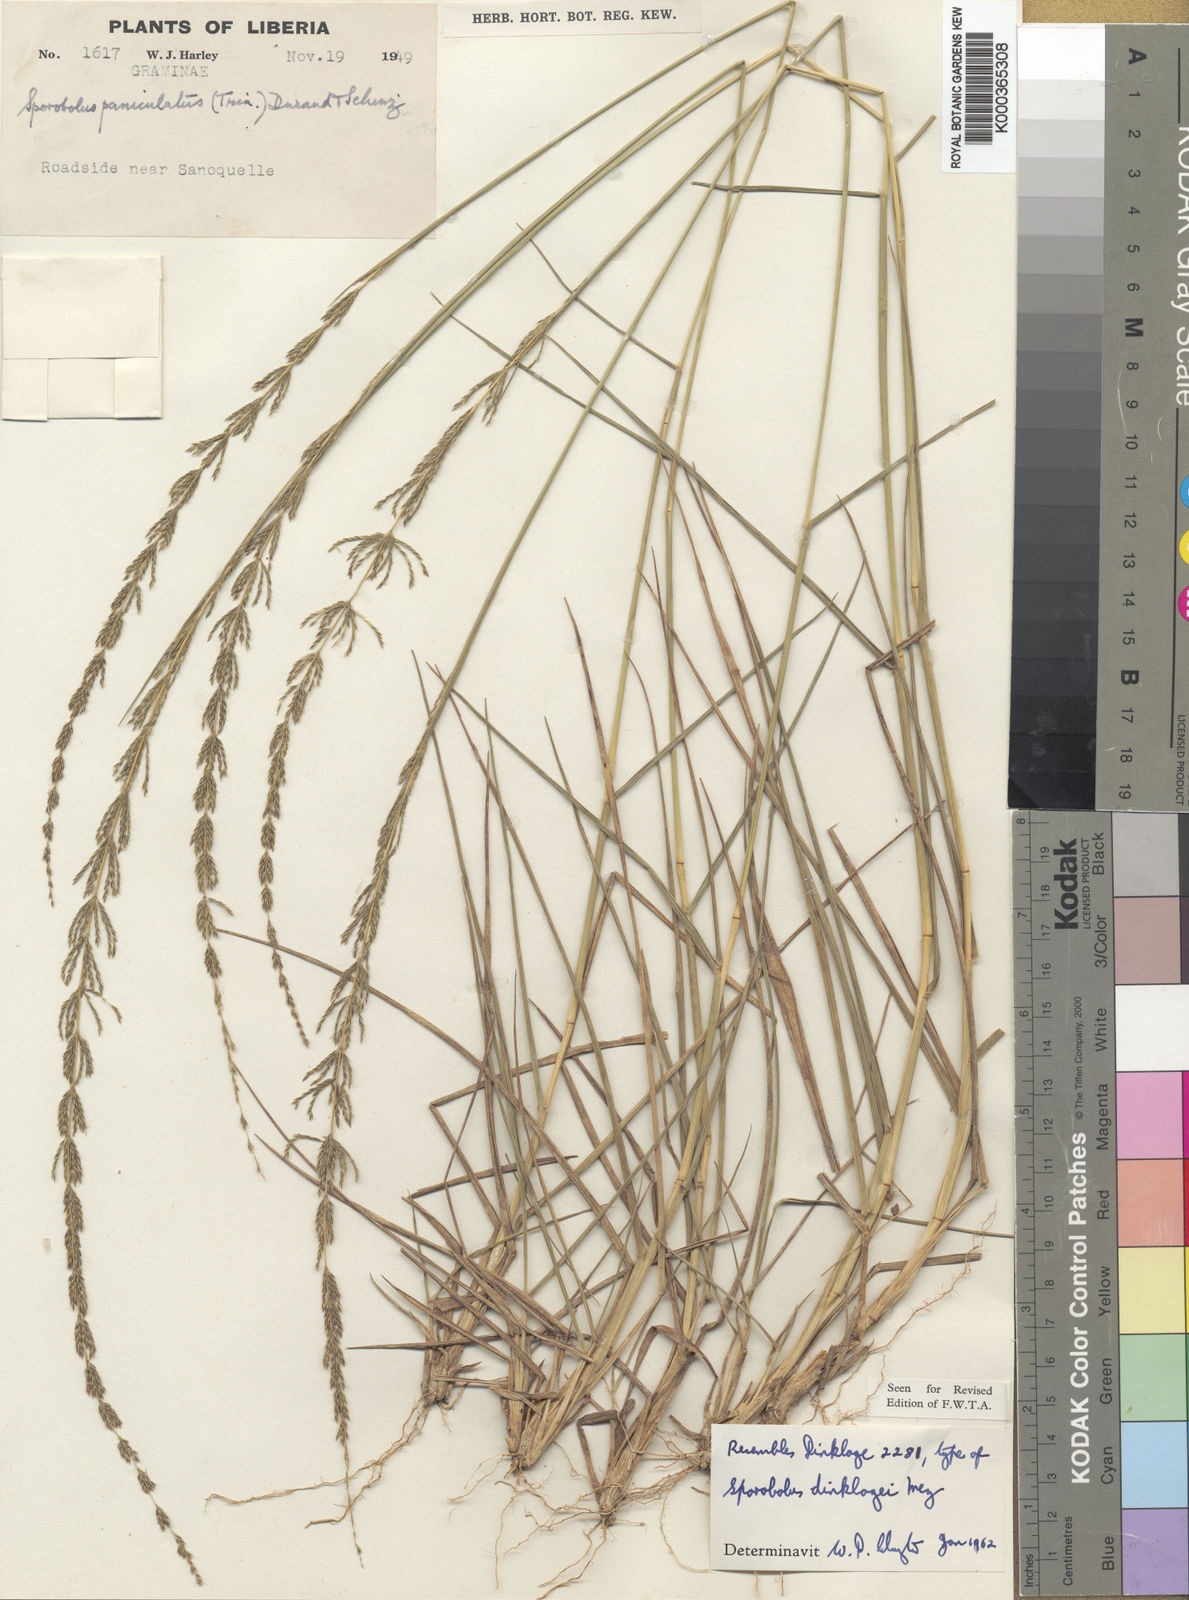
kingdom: Plantae
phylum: Tracheophyta
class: Liliopsida
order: Poales
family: Poaceae
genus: Sporobolus
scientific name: Sporobolus dinklagei
